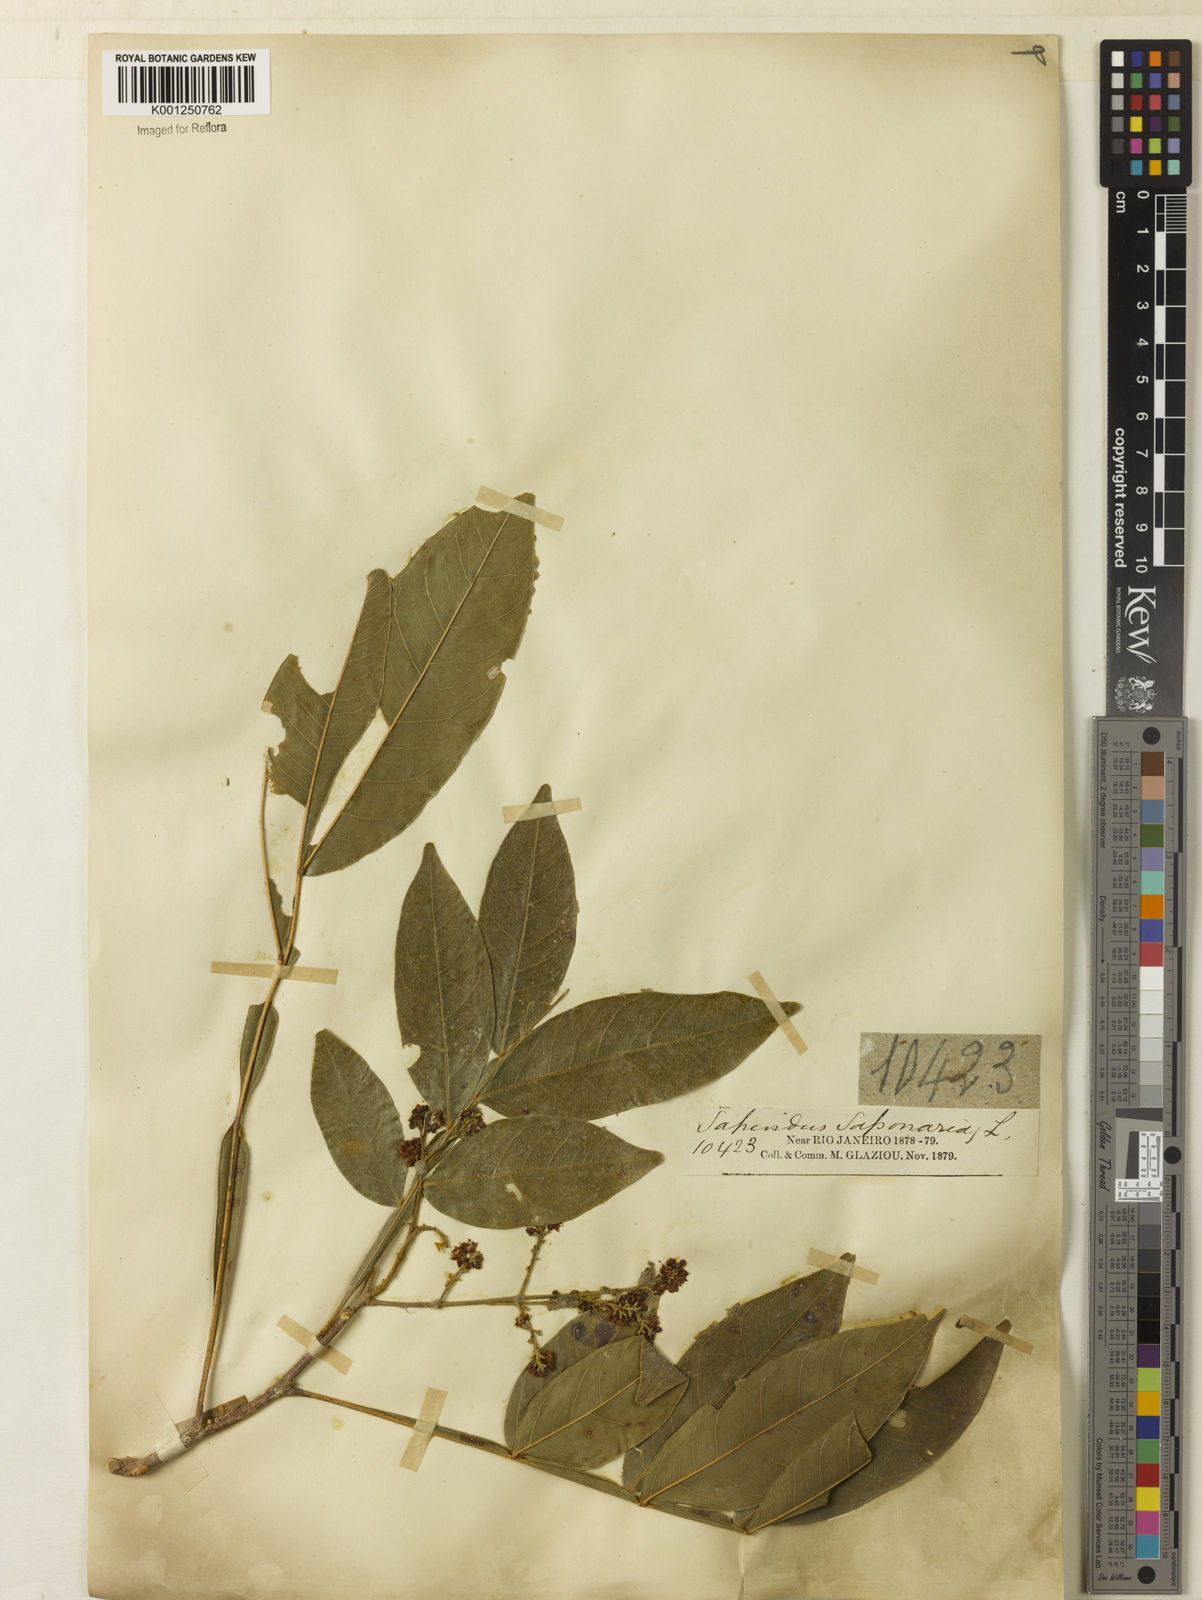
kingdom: Plantae
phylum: Tracheophyta
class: Magnoliopsida
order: Sapindales
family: Sapindaceae
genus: Sapindus
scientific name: Sapindus
